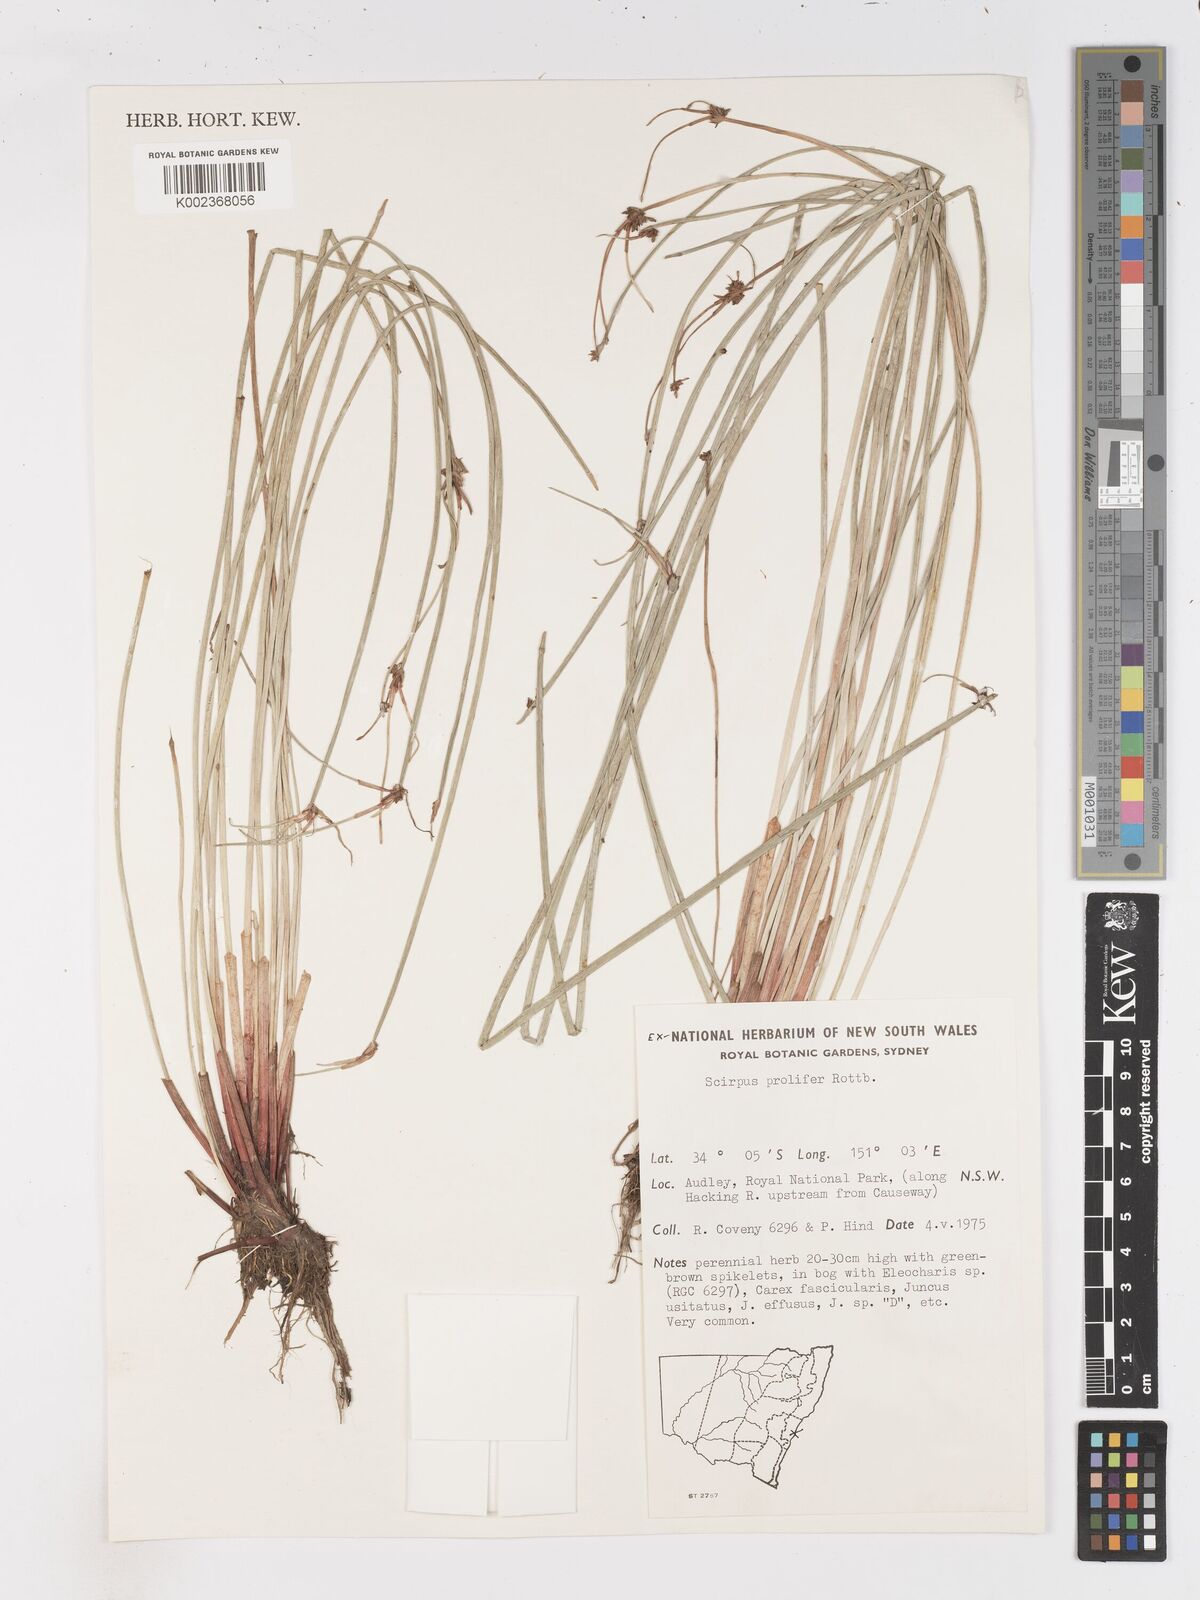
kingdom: Plantae
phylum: Tracheophyta
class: Liliopsida
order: Poales
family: Cyperaceae
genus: Isolepis
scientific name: Isolepis prolifera
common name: Proliferating bulrush
